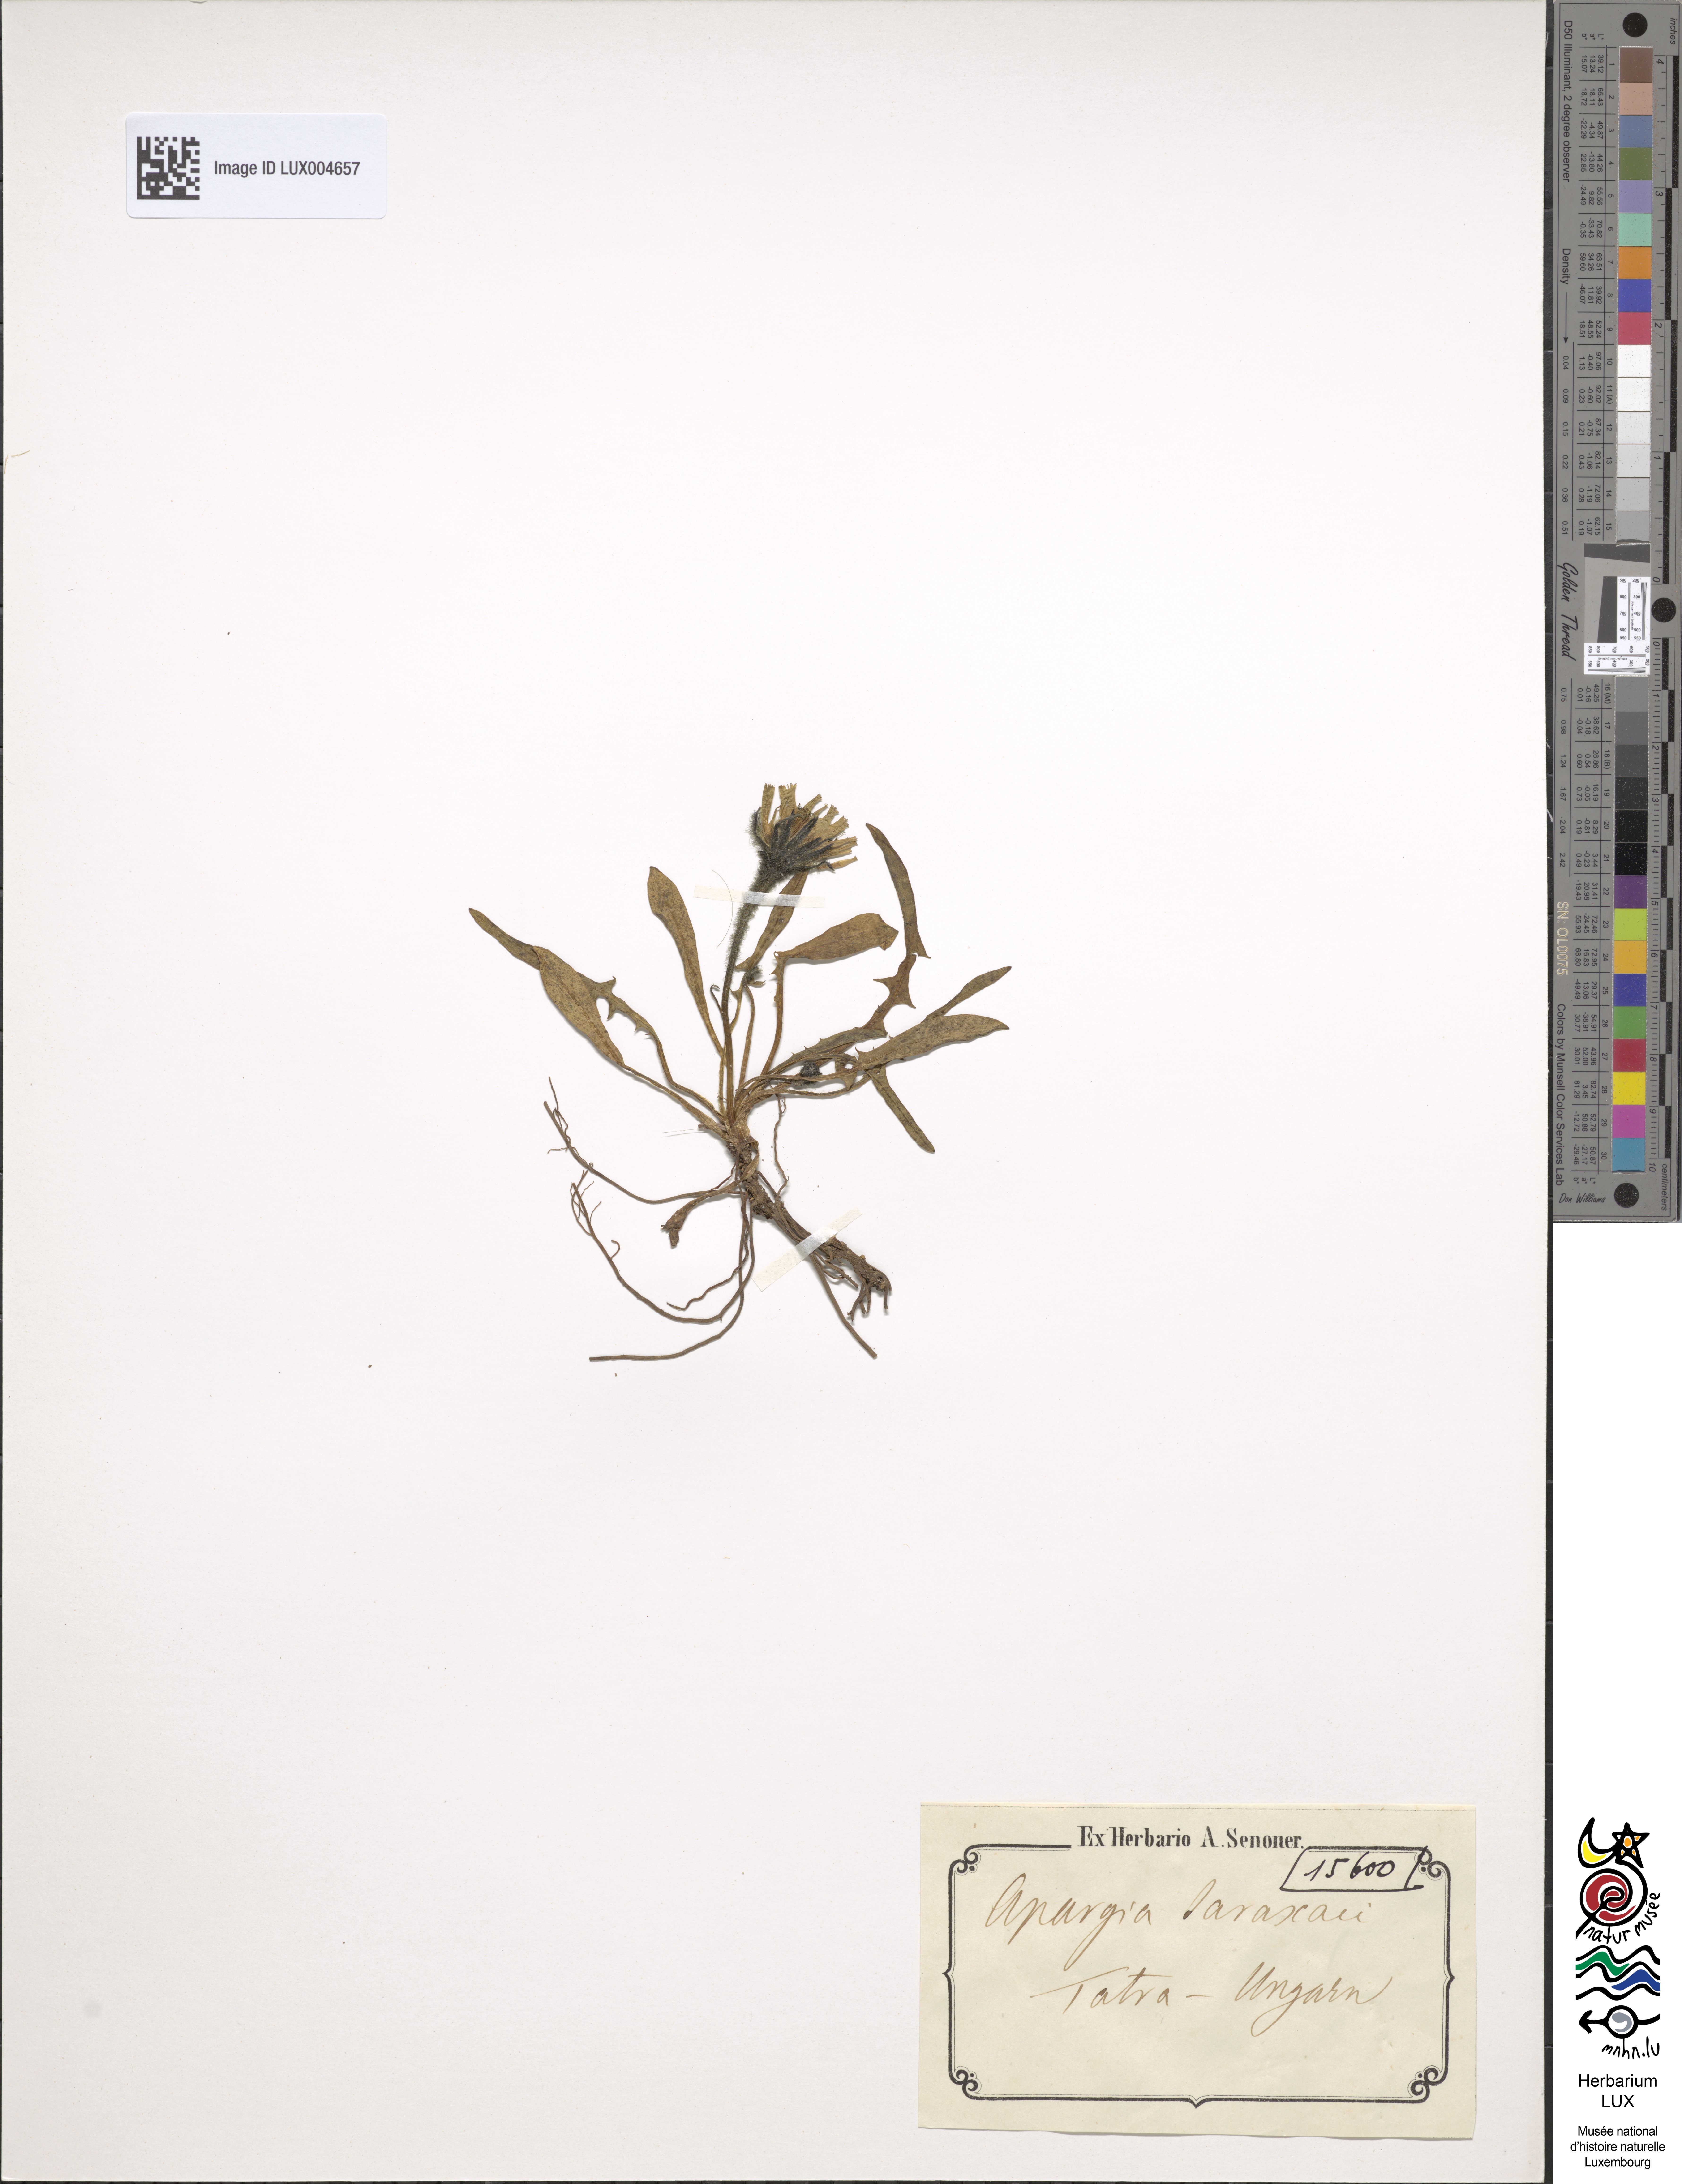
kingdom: Plantae
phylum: Tracheophyta
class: Magnoliopsida
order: Asterales
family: Asteraceae
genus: Scorzoneroides
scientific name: Scorzoneroides montana
